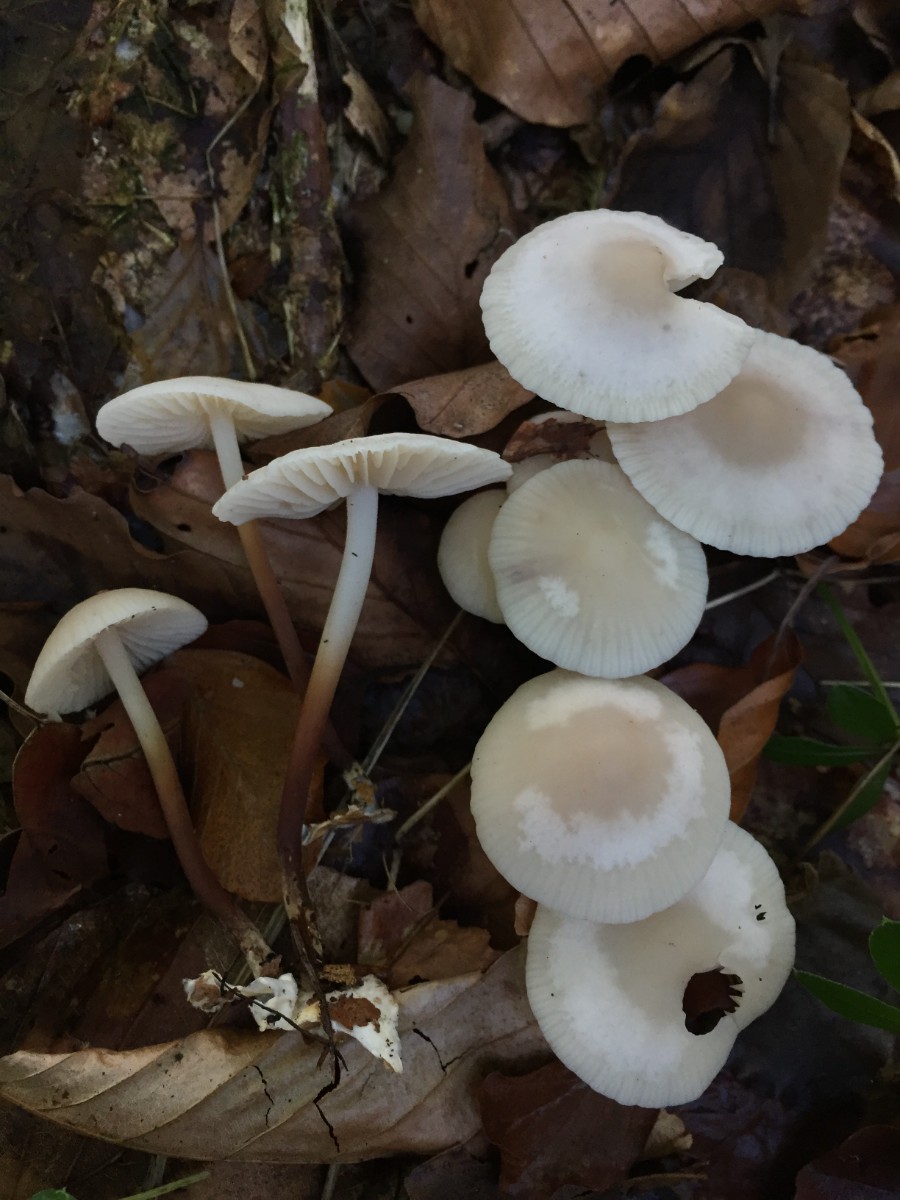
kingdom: Fungi
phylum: Basidiomycota
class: Agaricomycetes
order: Agaricales
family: Marasmiaceae
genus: Marasmius
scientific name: Marasmius wynneae
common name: hvælvet bruskhat
